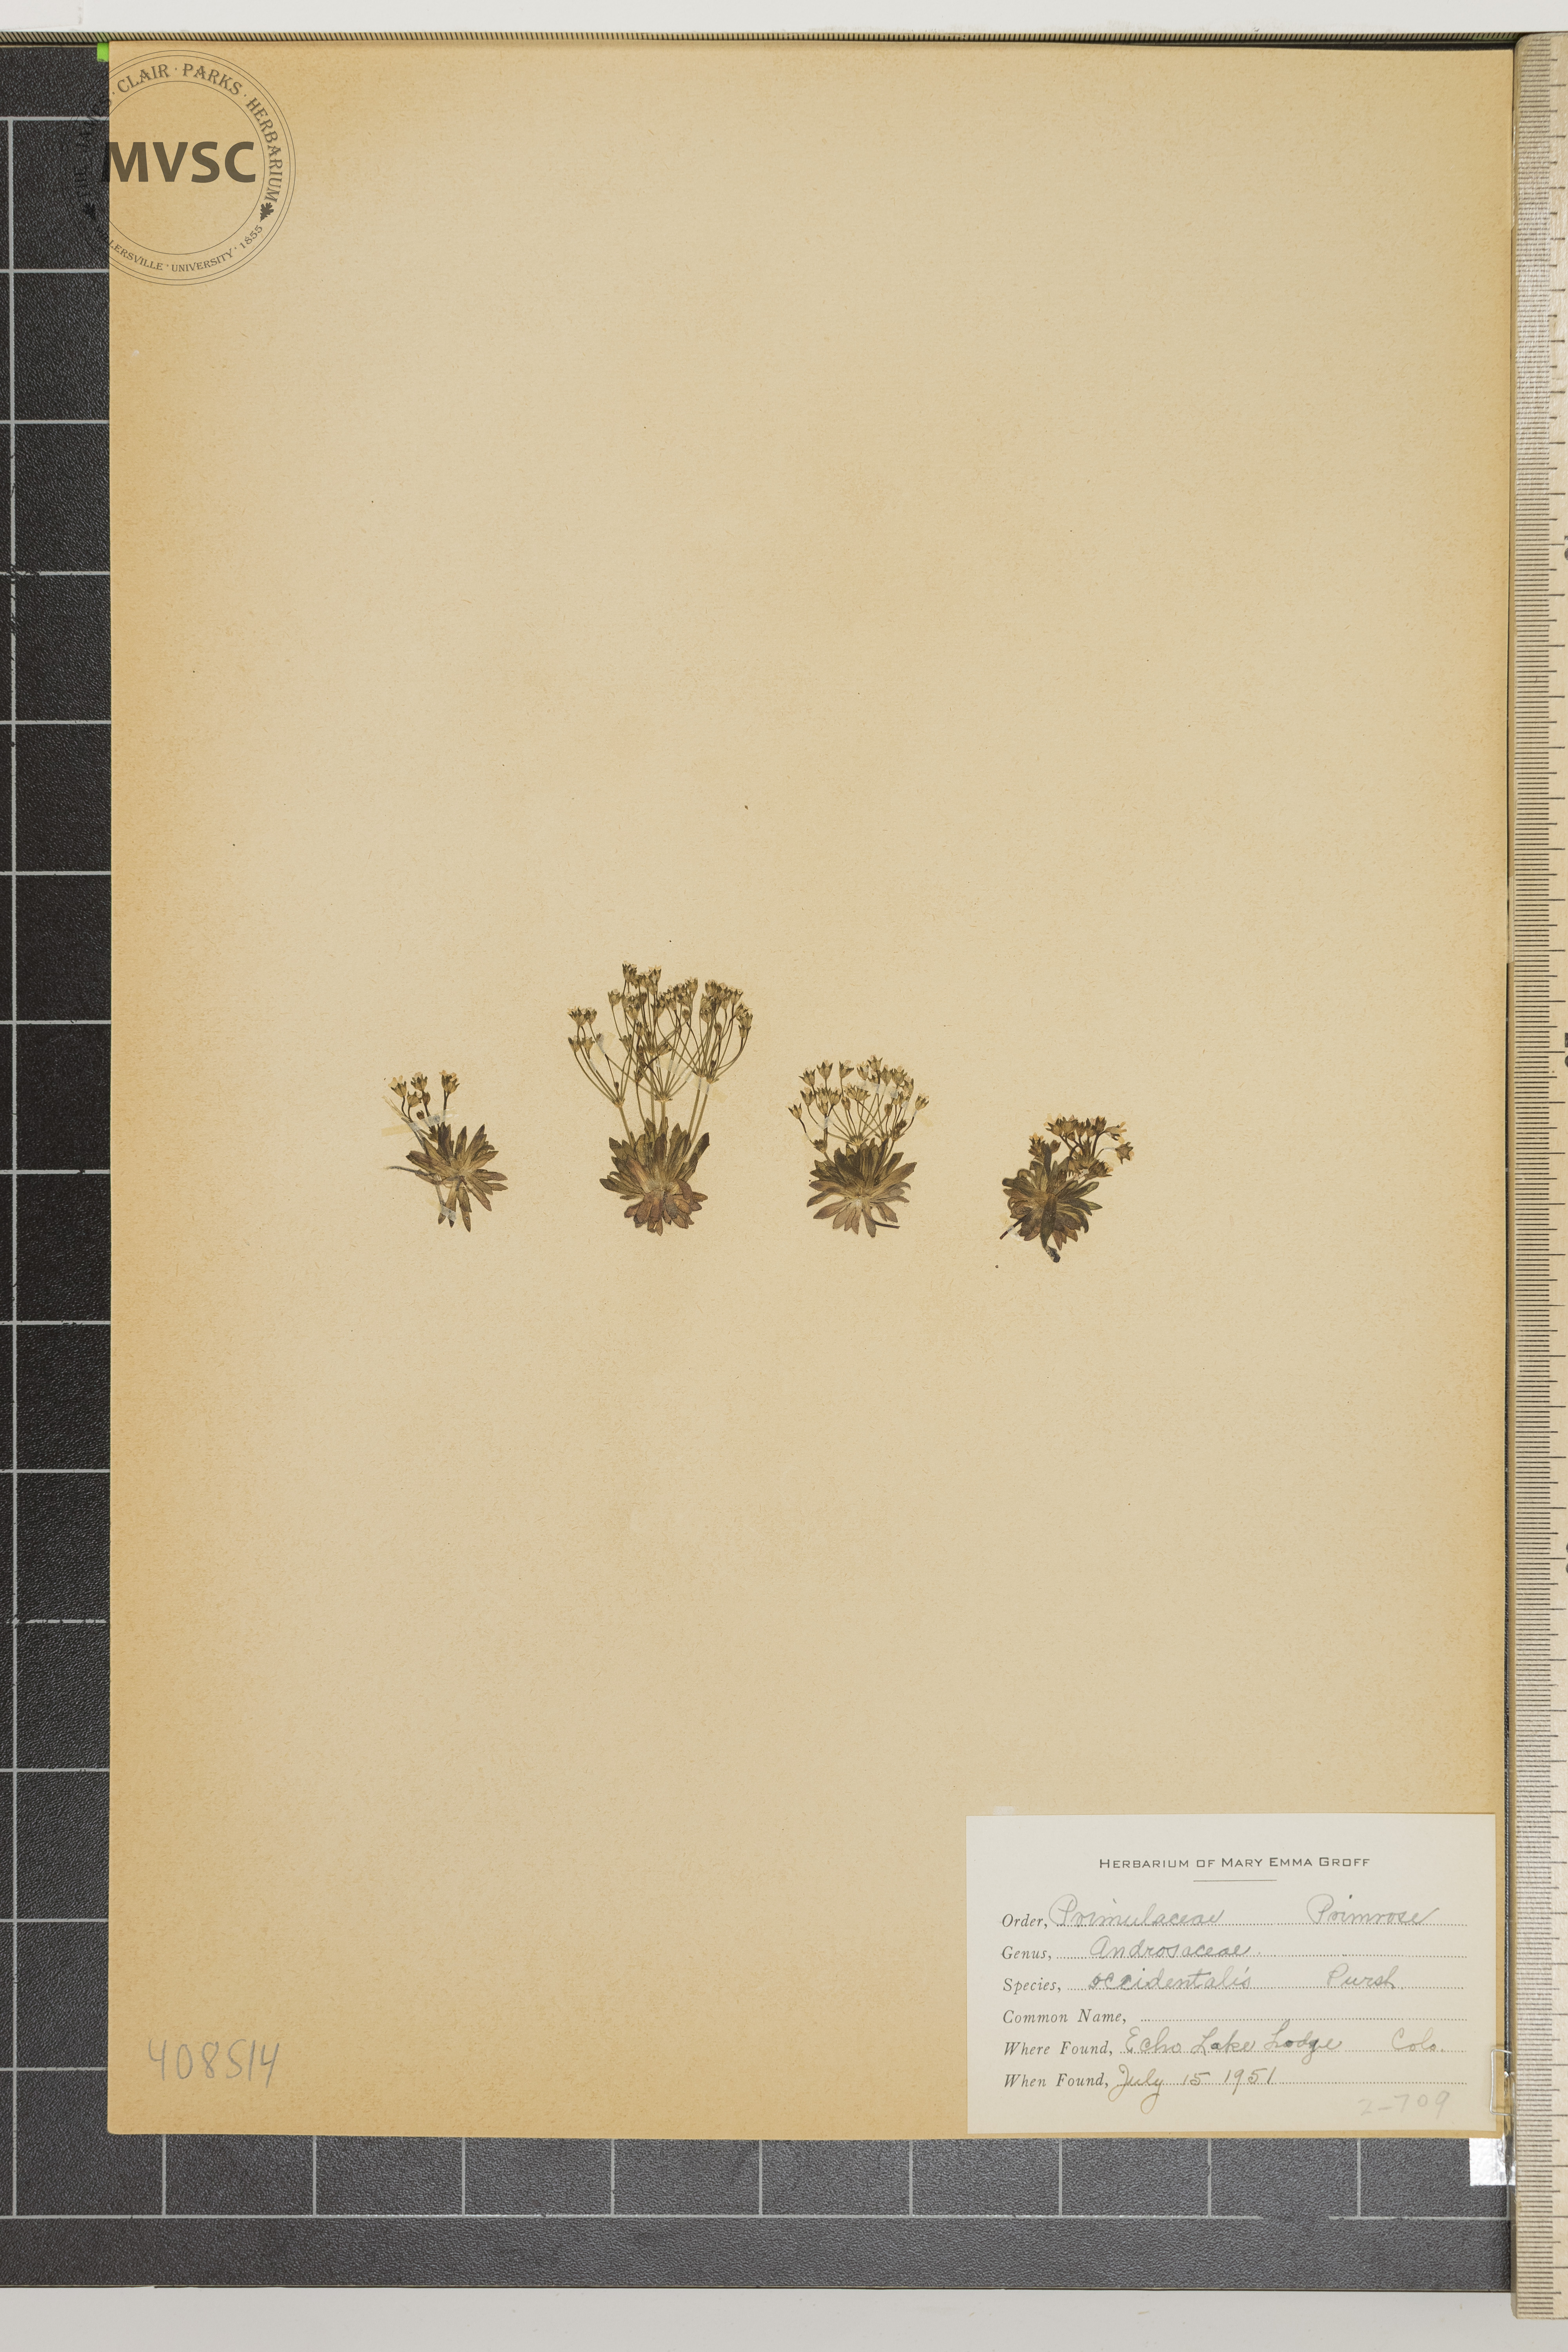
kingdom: Plantae
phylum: Tracheophyta
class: Magnoliopsida
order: Ericales
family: Primulaceae
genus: Androsace
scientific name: Androsace occidentalis
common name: West rock-jasmine
